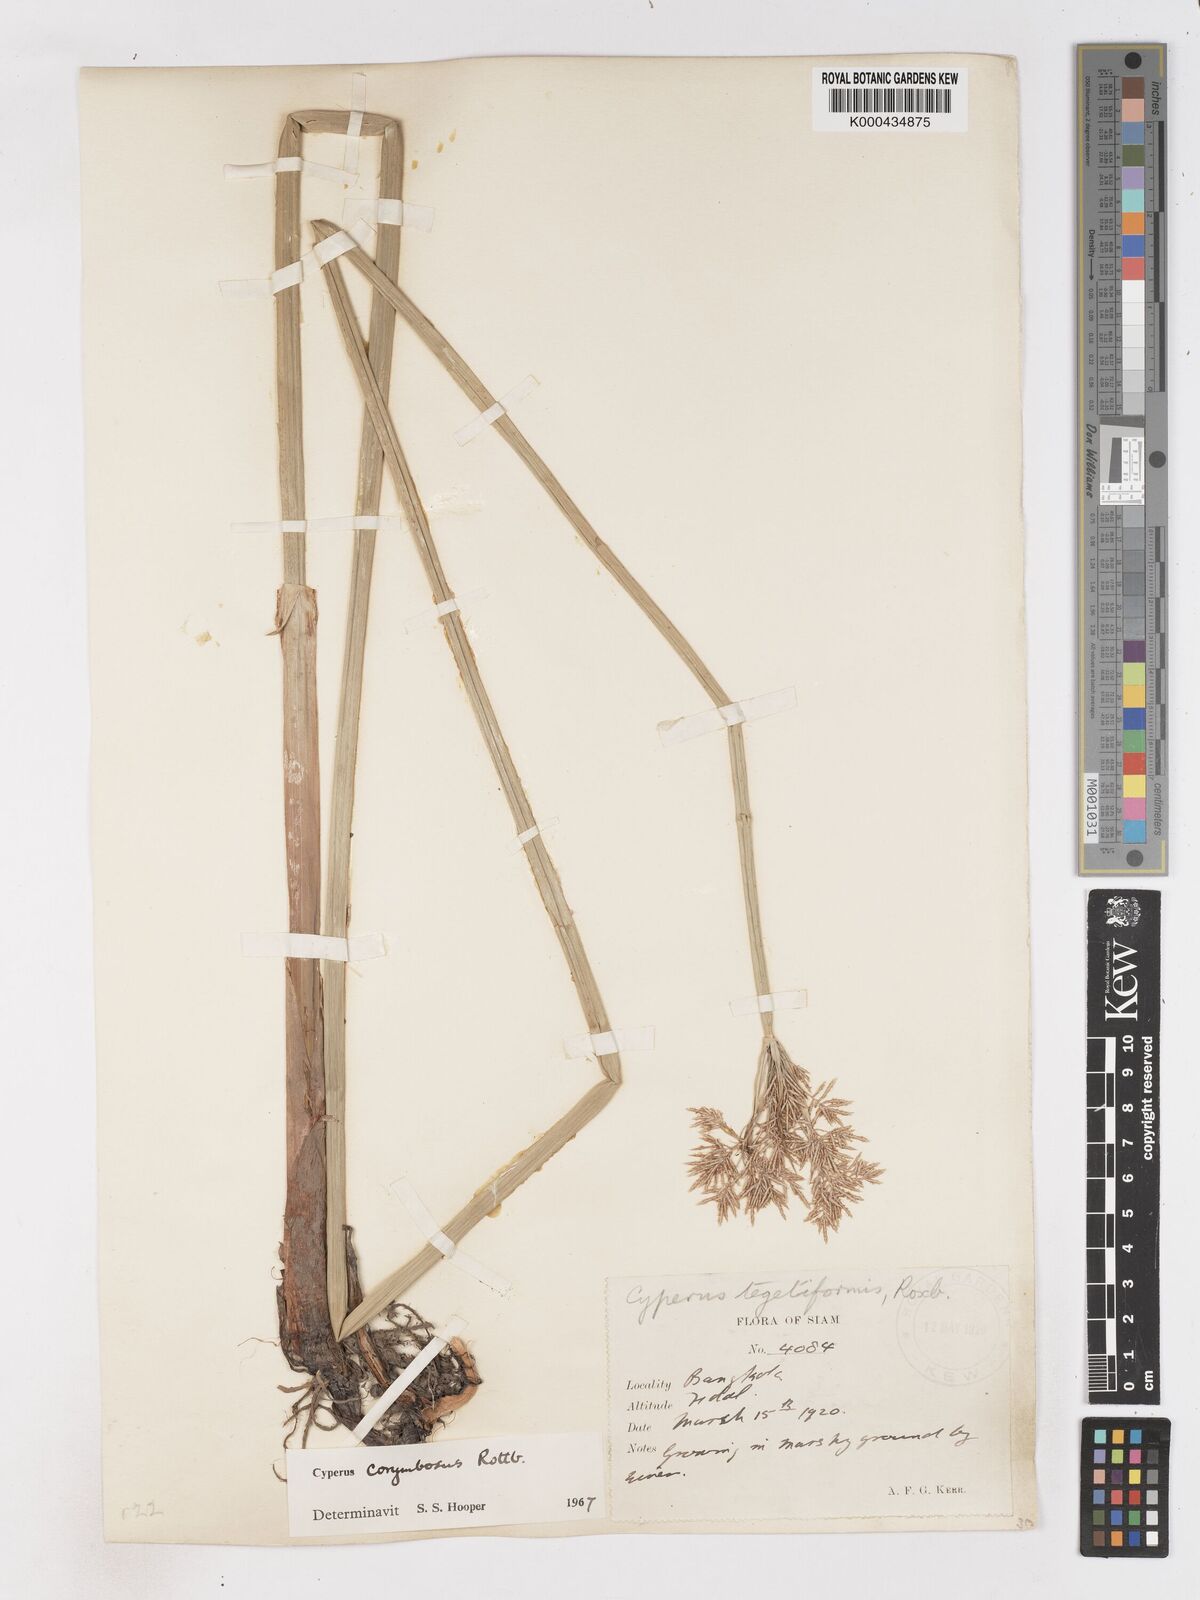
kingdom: Plantae
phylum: Tracheophyta
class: Liliopsida
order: Poales
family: Cyperaceae
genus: Cyperus
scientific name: Cyperus corymbosus
